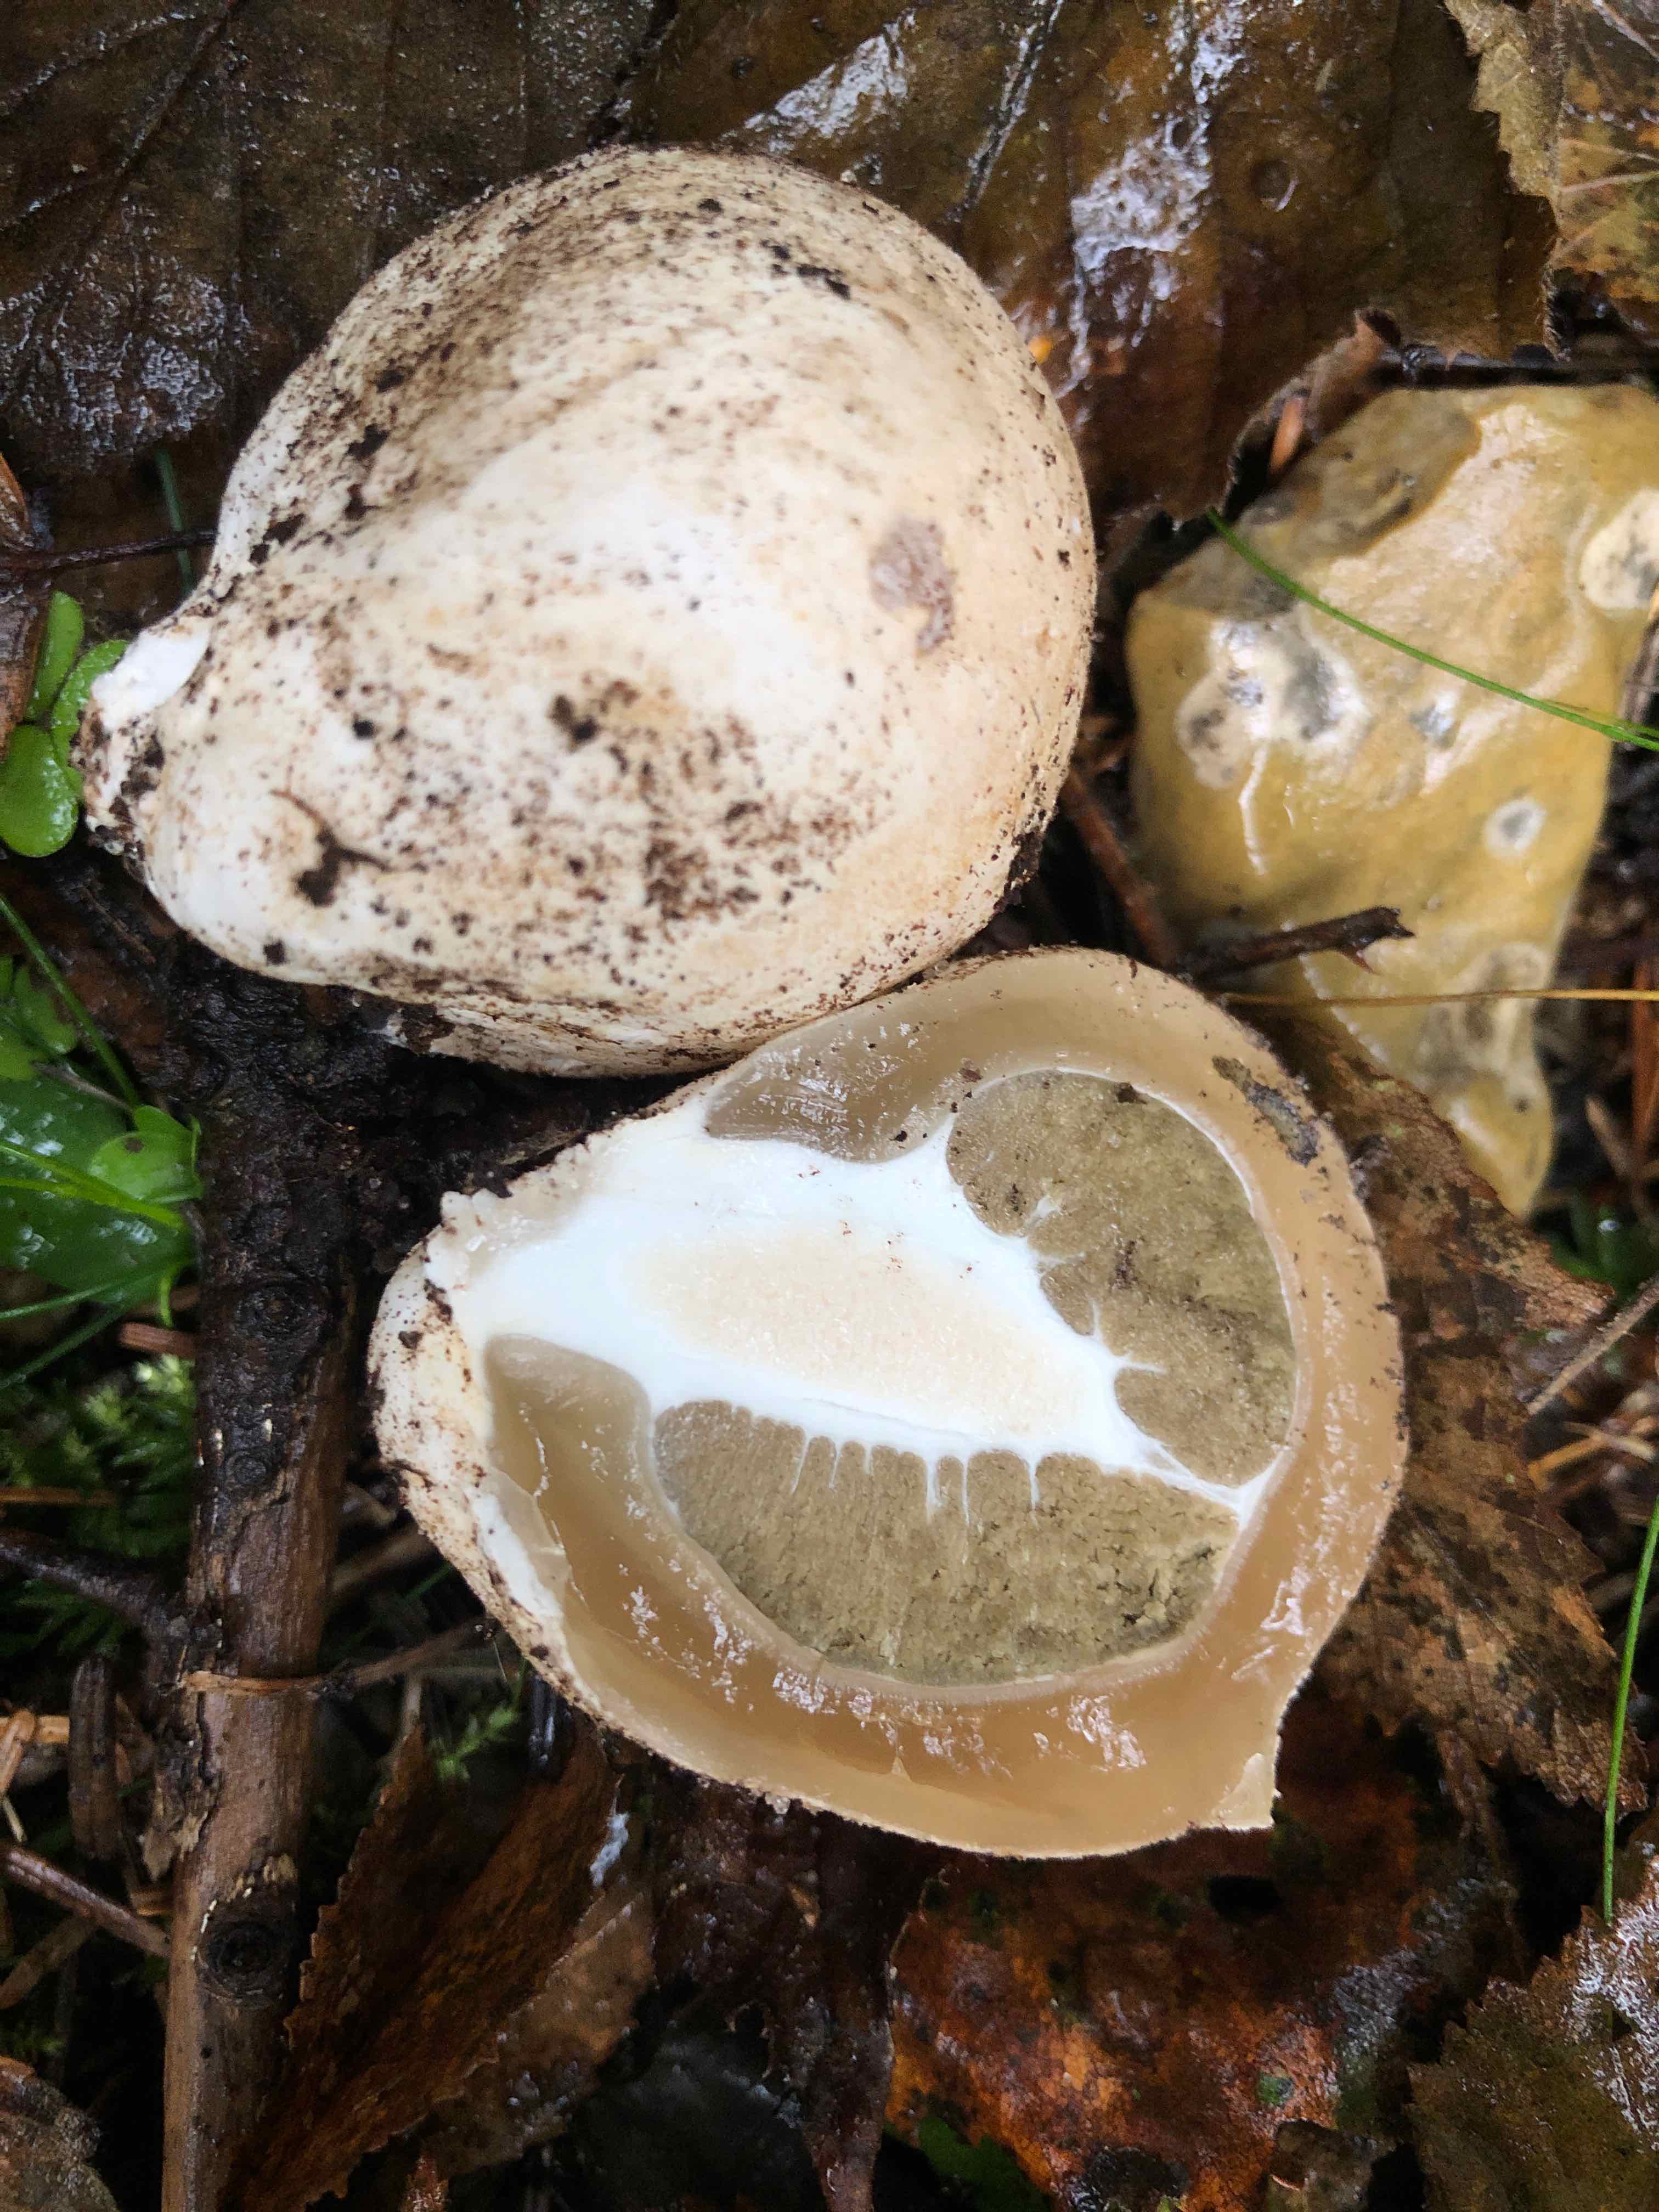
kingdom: Fungi
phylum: Basidiomycota
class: Agaricomycetes
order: Phallales
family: Phallaceae
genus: Phallus
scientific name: Phallus impudicus
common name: almindelig stinksvamp
